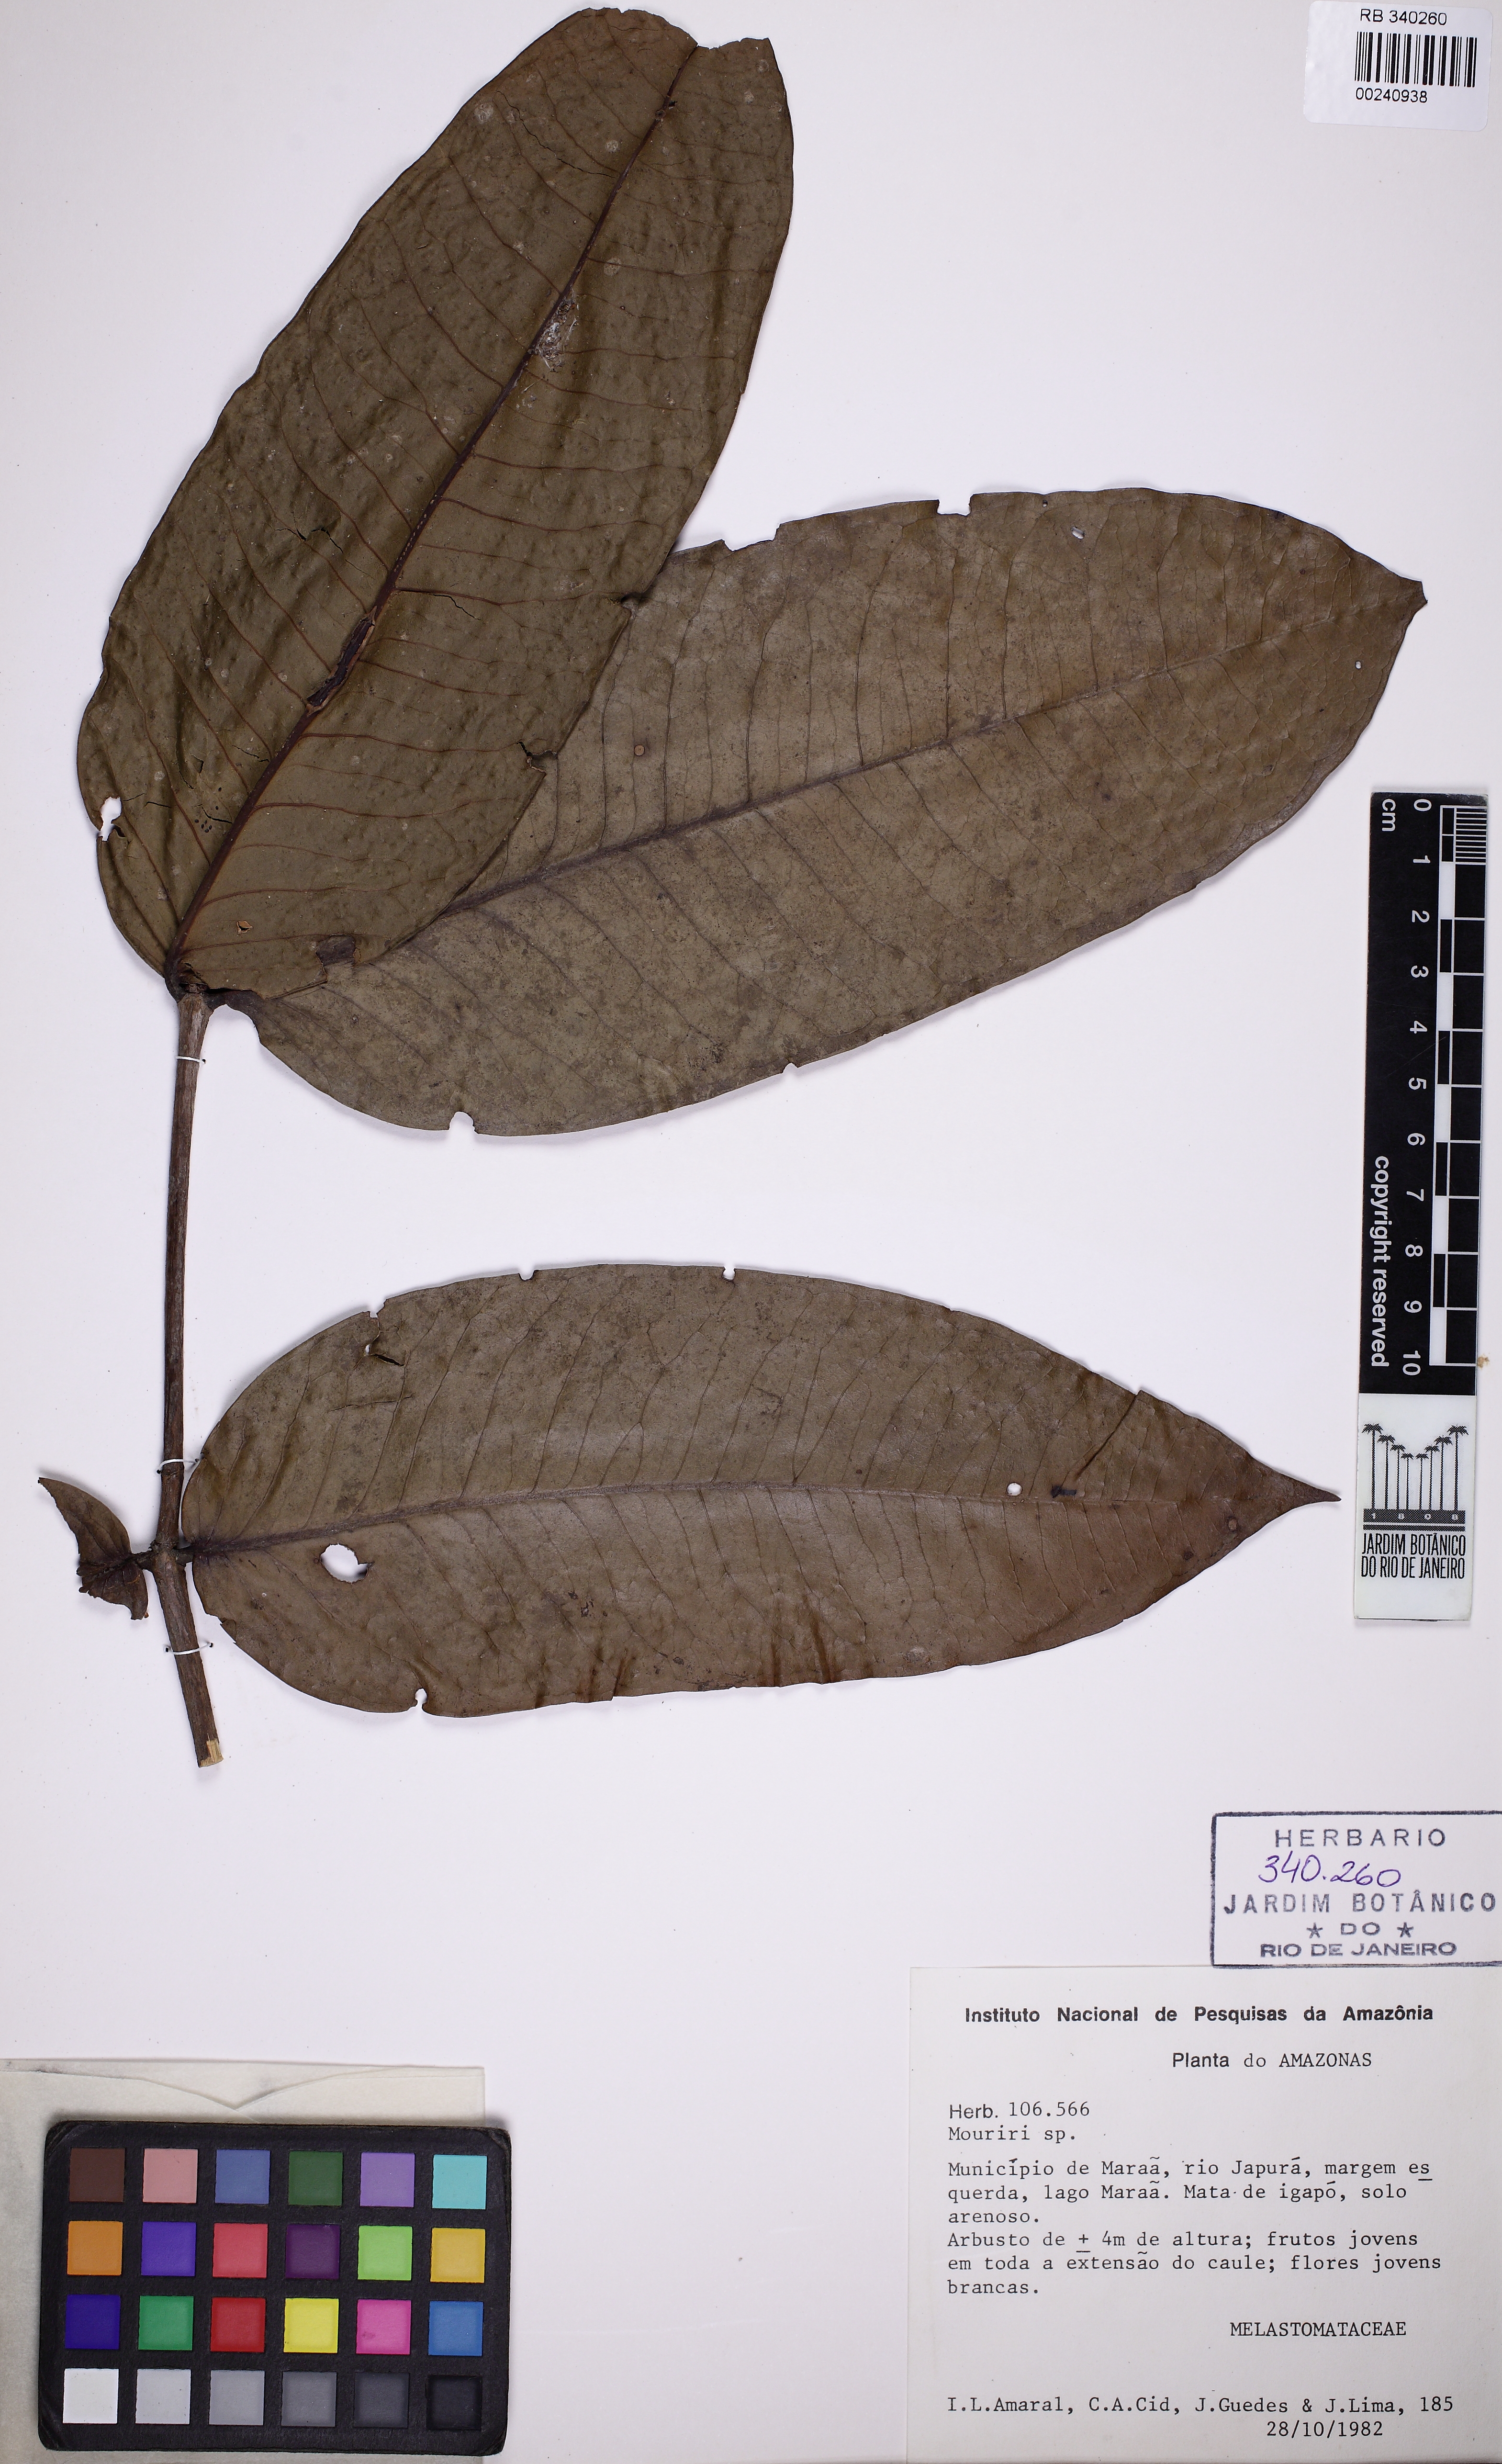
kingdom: Plantae
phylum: Tracheophyta
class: Magnoliopsida
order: Myrtales
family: Melastomataceae
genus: Mouriri
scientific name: Mouriri grandiflora
